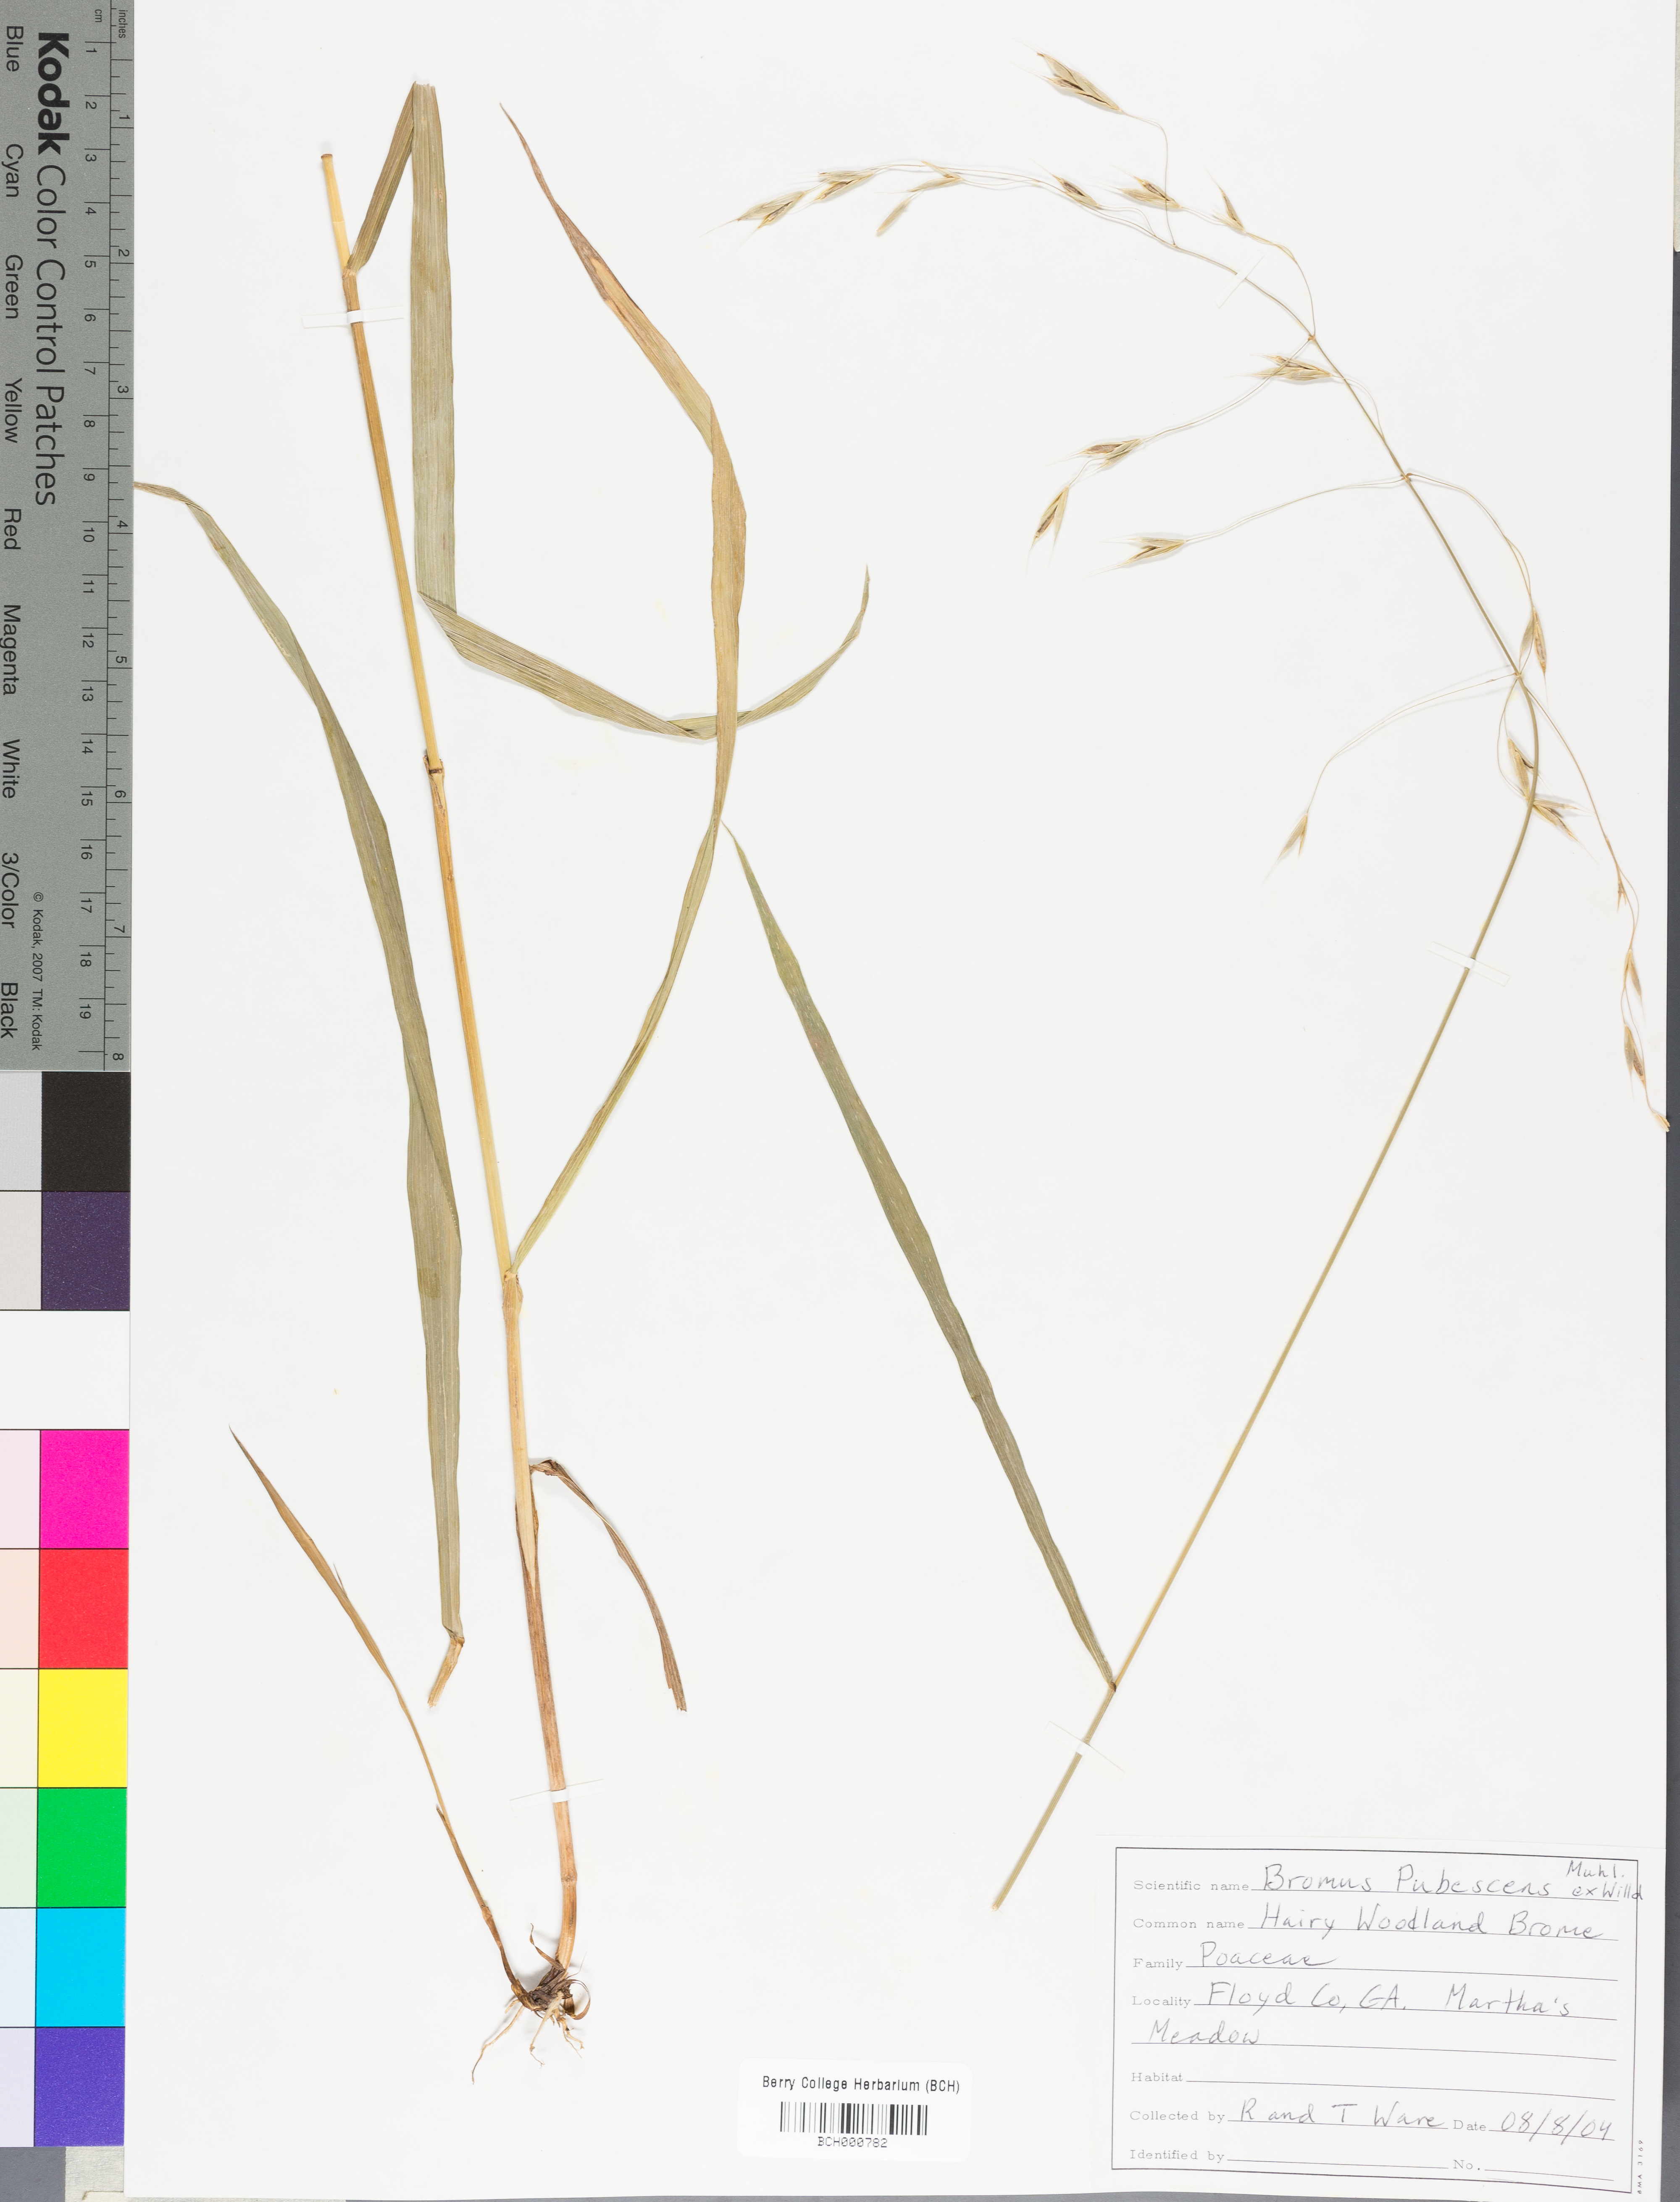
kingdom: Plantae
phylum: Tracheophyta
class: Liliopsida
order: Poales
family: Poaceae
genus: Bromus
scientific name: Bromus pubescens
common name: Hairy wood brome grass
